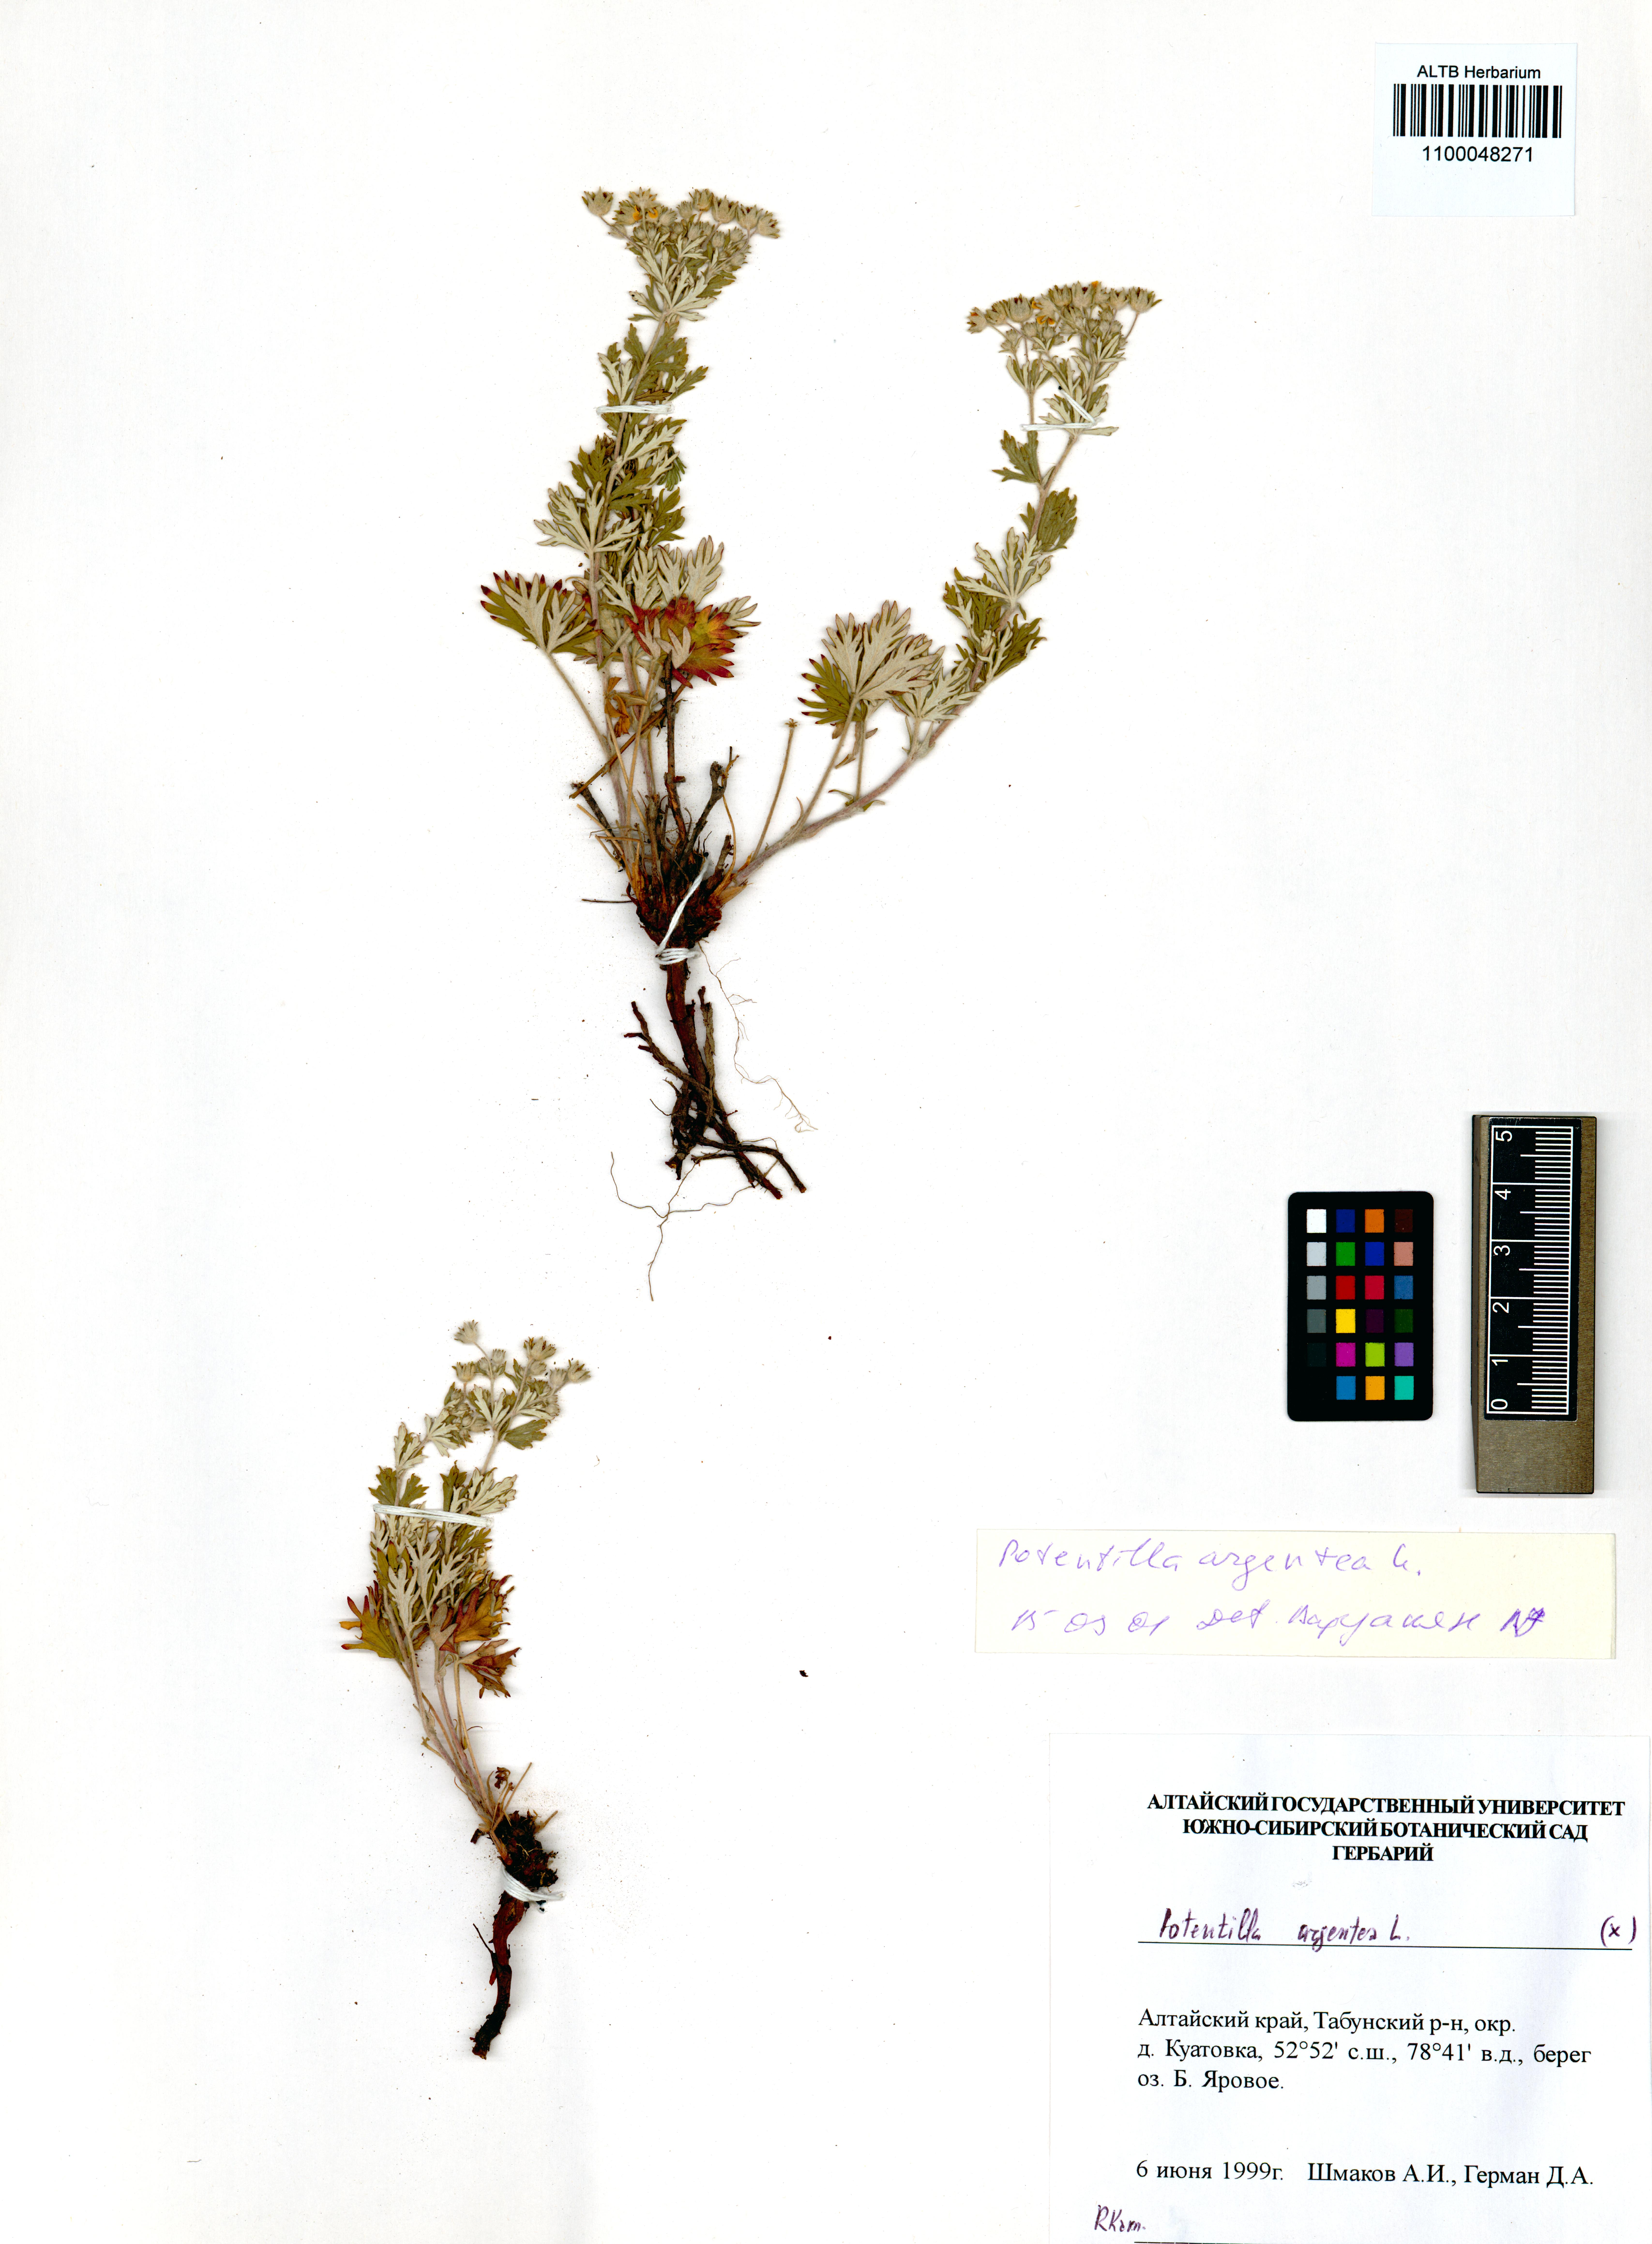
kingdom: Plantae
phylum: Tracheophyta
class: Magnoliopsida
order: Rosales
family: Rosaceae
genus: Potentilla
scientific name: Potentilla argentea
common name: Hoary cinquefoil
